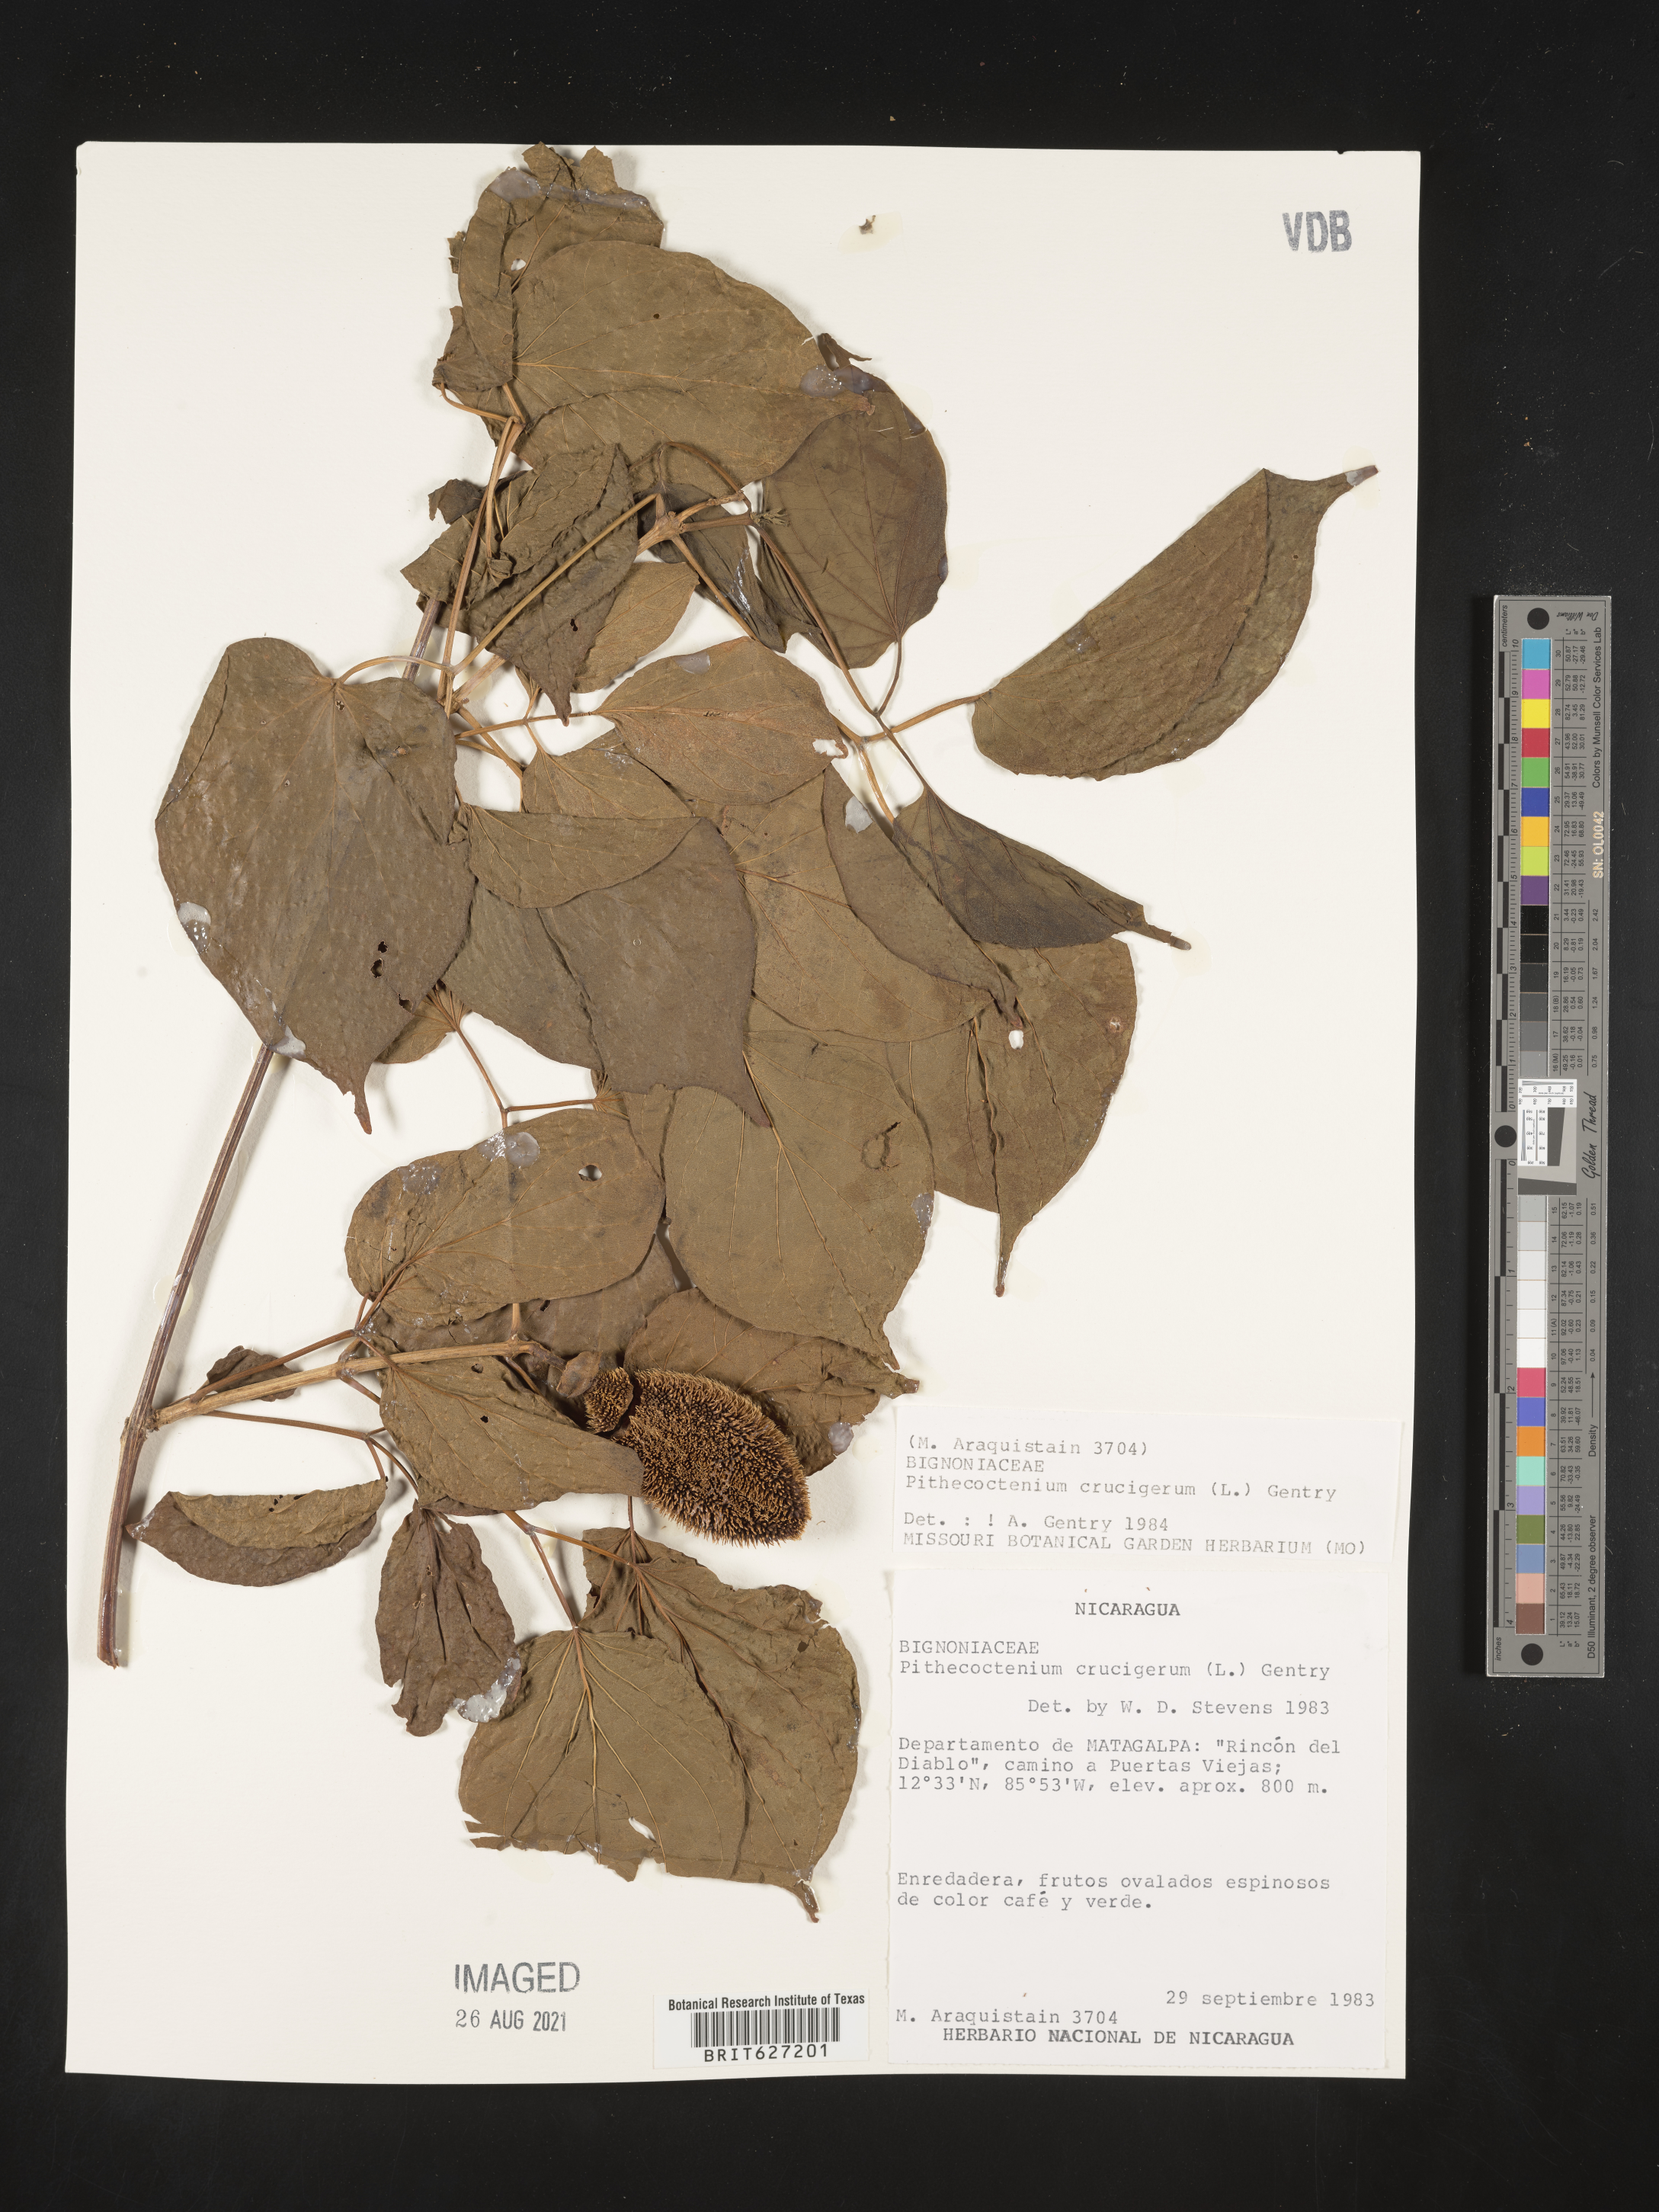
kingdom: Plantae
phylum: Tracheophyta
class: Magnoliopsida
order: Lamiales
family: Bignoniaceae
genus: Amphilophium
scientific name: Amphilophium crucigerum
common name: Monkey comb
